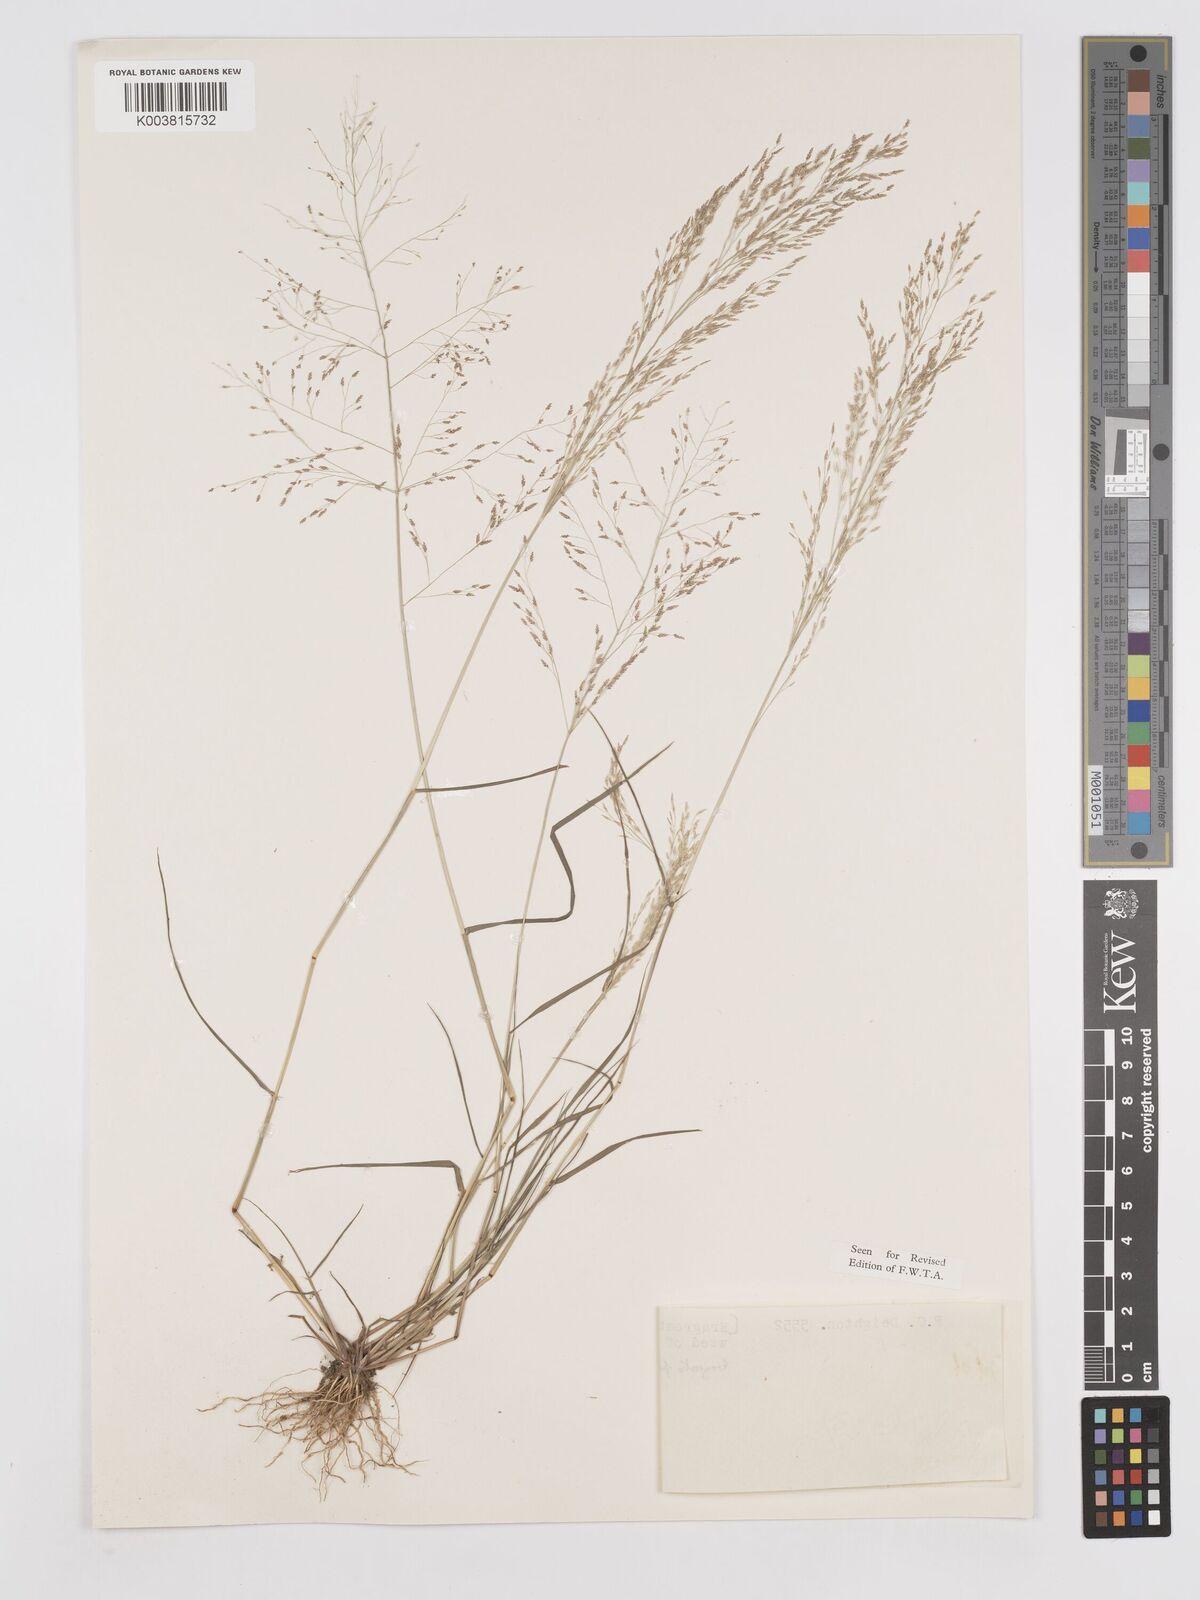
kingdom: Plantae
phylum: Tracheophyta
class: Liliopsida
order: Poales
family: Poaceae
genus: Eragrostis
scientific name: Eragrostis pilosa
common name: Indian lovegrass
